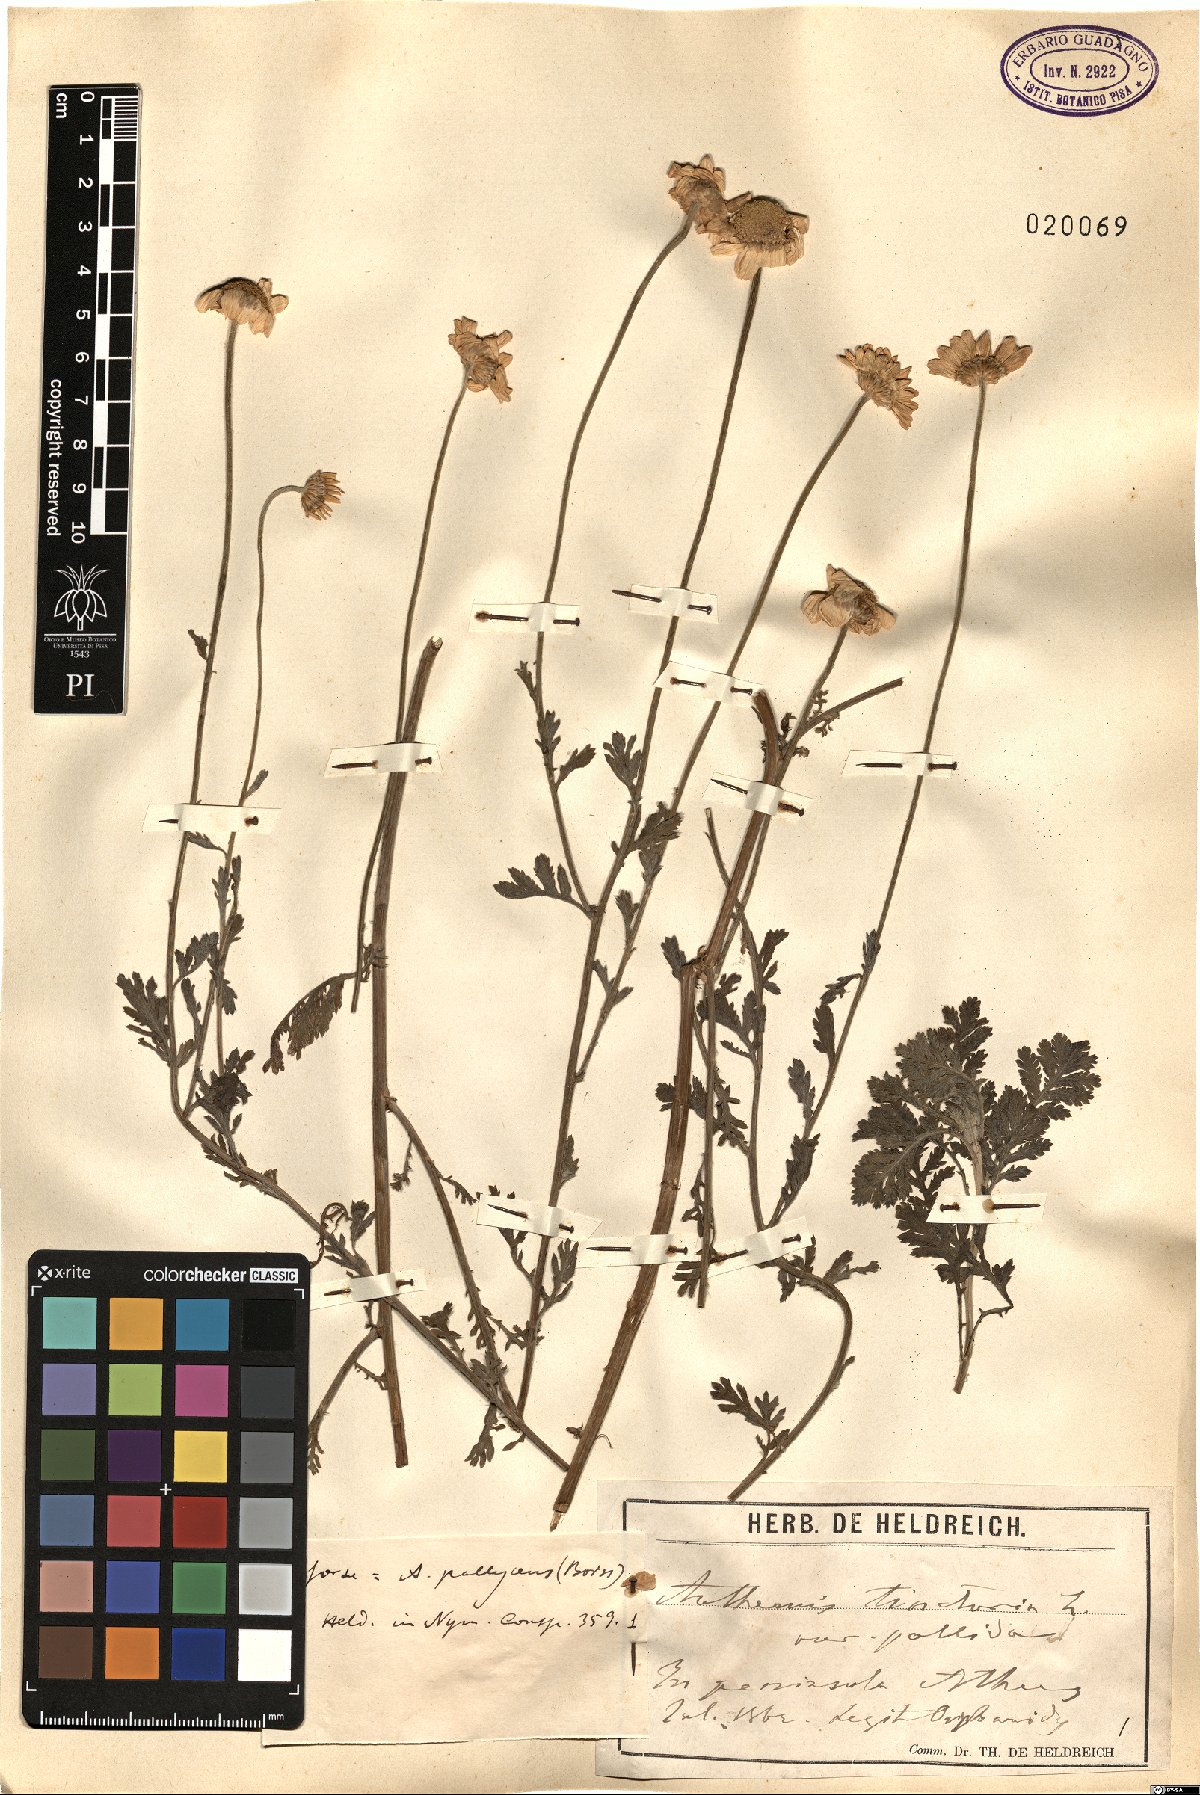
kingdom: Plantae
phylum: Tracheophyta
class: Magnoliopsida
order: Asterales
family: Asteraceae
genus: Cota
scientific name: Cota tinctoria
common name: Golden chamomile
